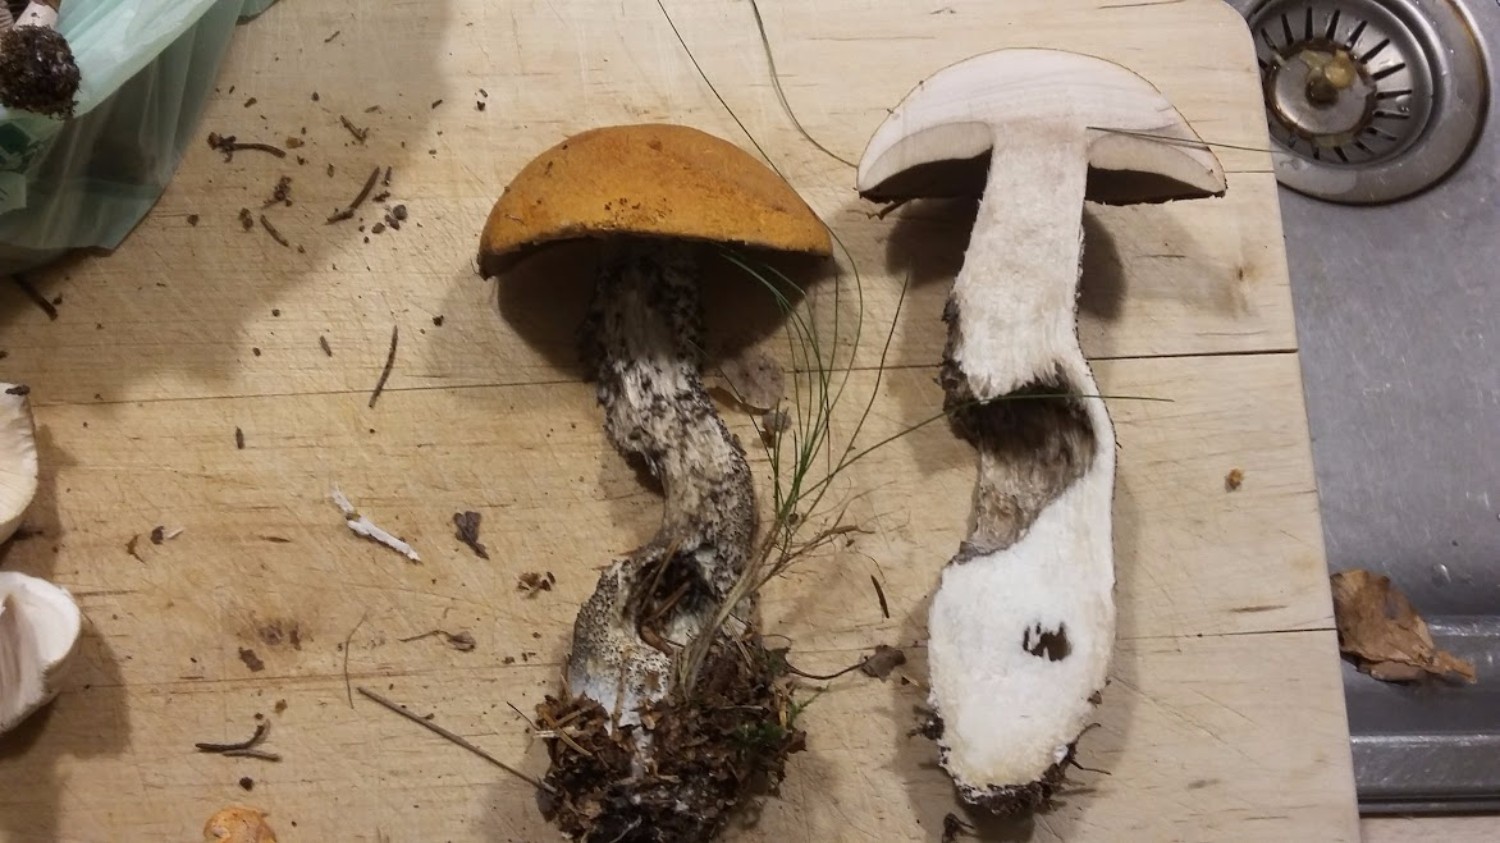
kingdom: Fungi
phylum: Basidiomycota
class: Agaricomycetes
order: Boletales
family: Boletaceae
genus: Leccinum
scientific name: Leccinum versipelle
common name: orange skælrørhat
